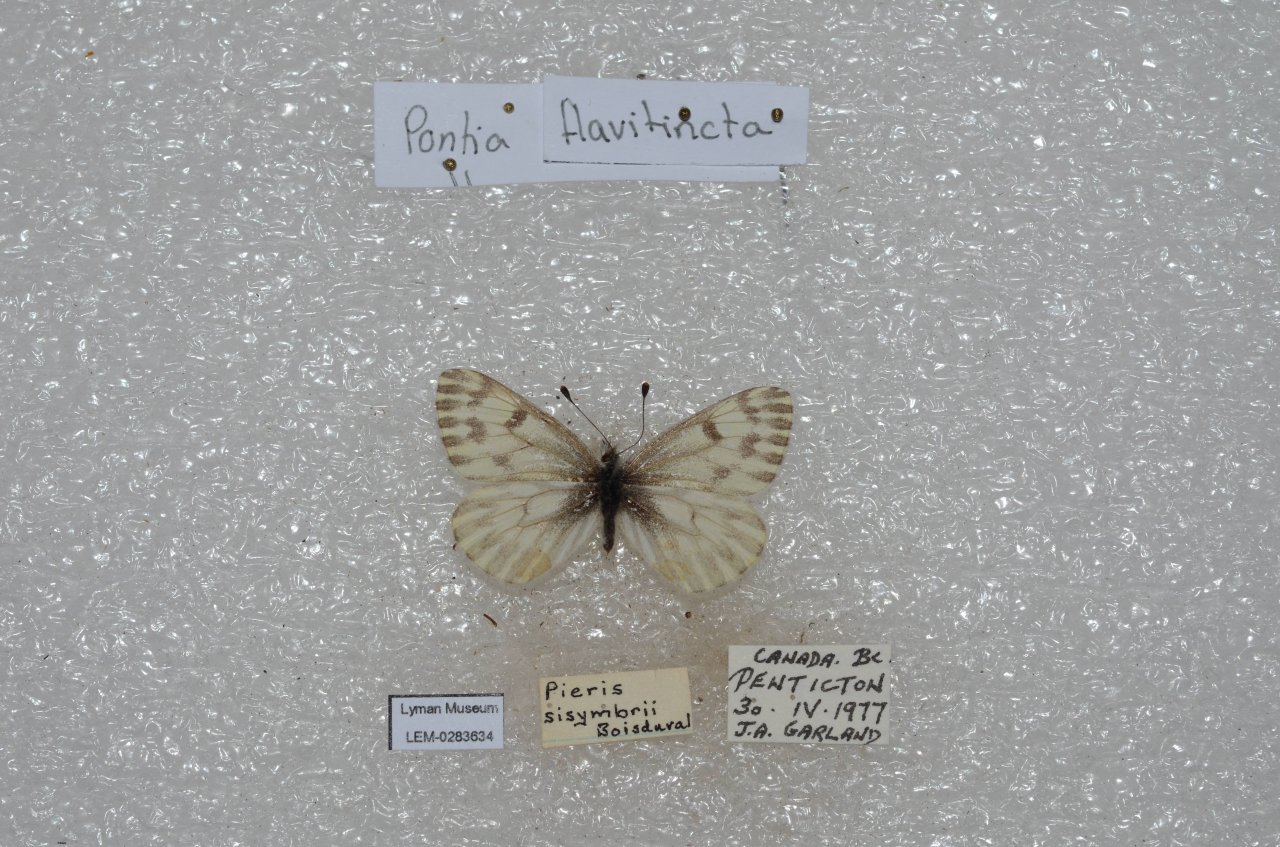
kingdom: Animalia
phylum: Arthropoda
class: Insecta
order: Lepidoptera
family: Pieridae
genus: Pontia
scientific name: Pontia sisymbrii
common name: Spring White
